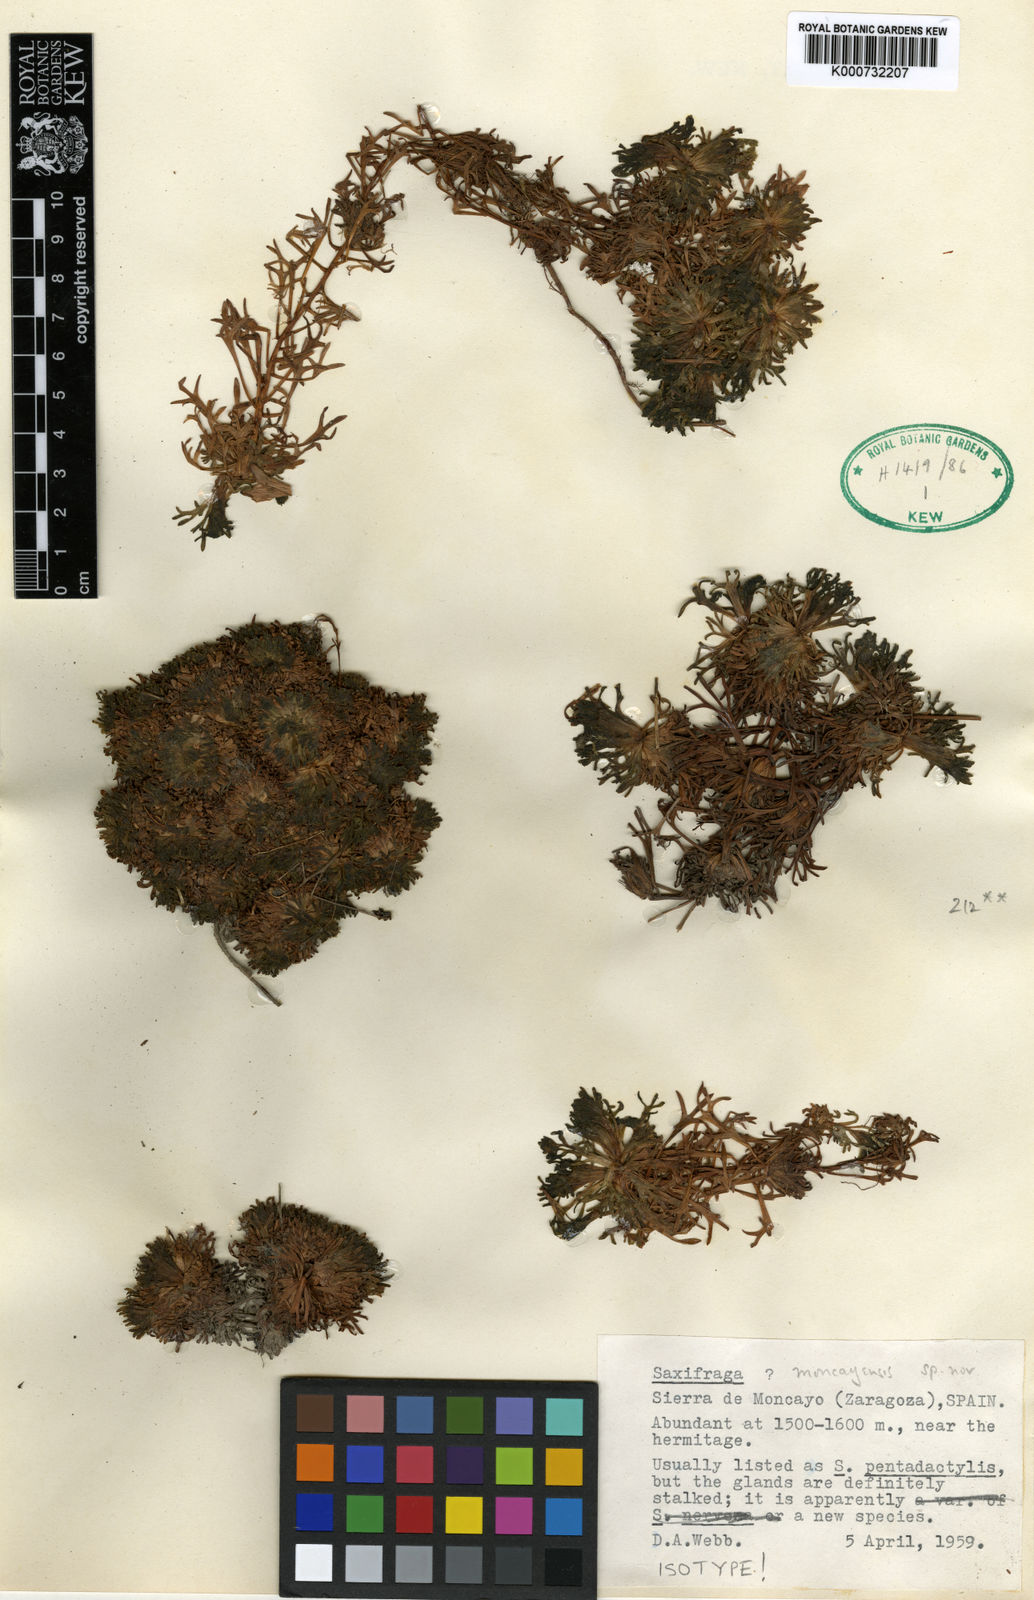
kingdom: Plantae
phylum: Tracheophyta
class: Magnoliopsida
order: Saxifragales
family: Saxifragaceae
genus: Saxifraga
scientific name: Saxifraga moncayensis
